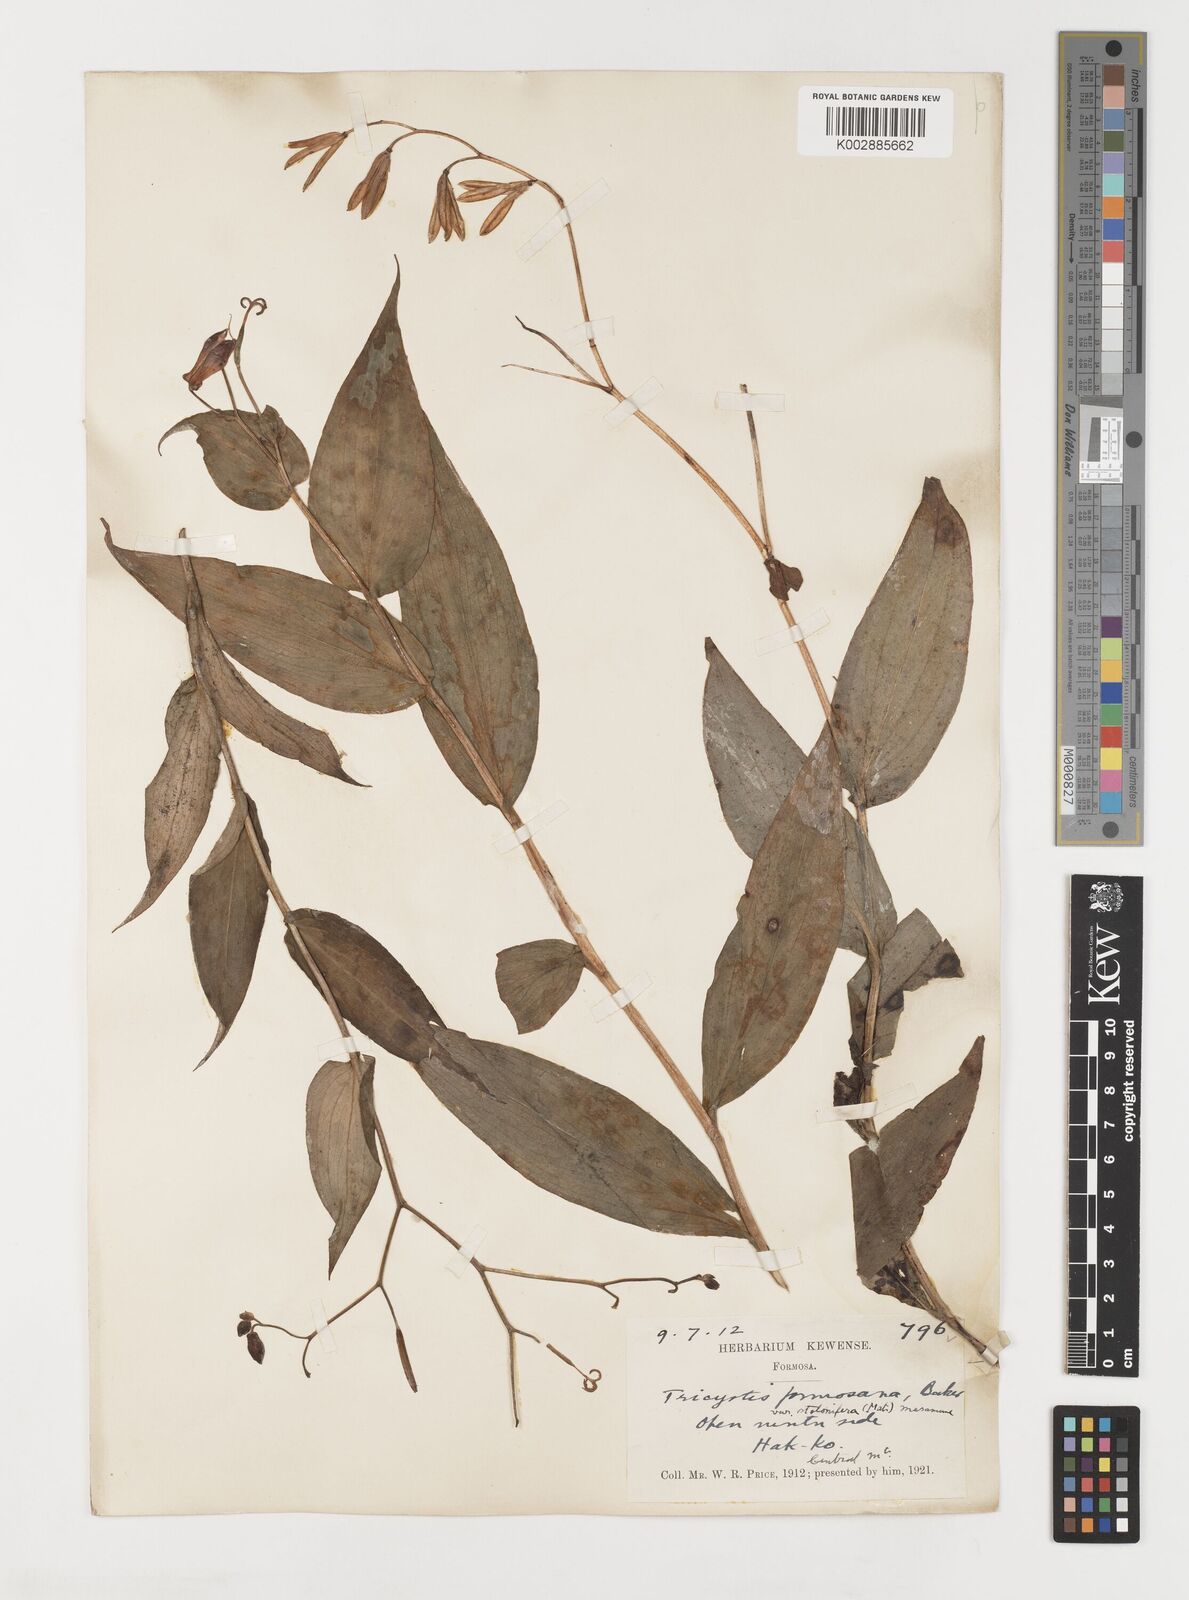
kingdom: Plantae
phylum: Tracheophyta
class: Liliopsida
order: Liliales
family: Liliaceae
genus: Tricyrtis
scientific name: Tricyrtis formosana
